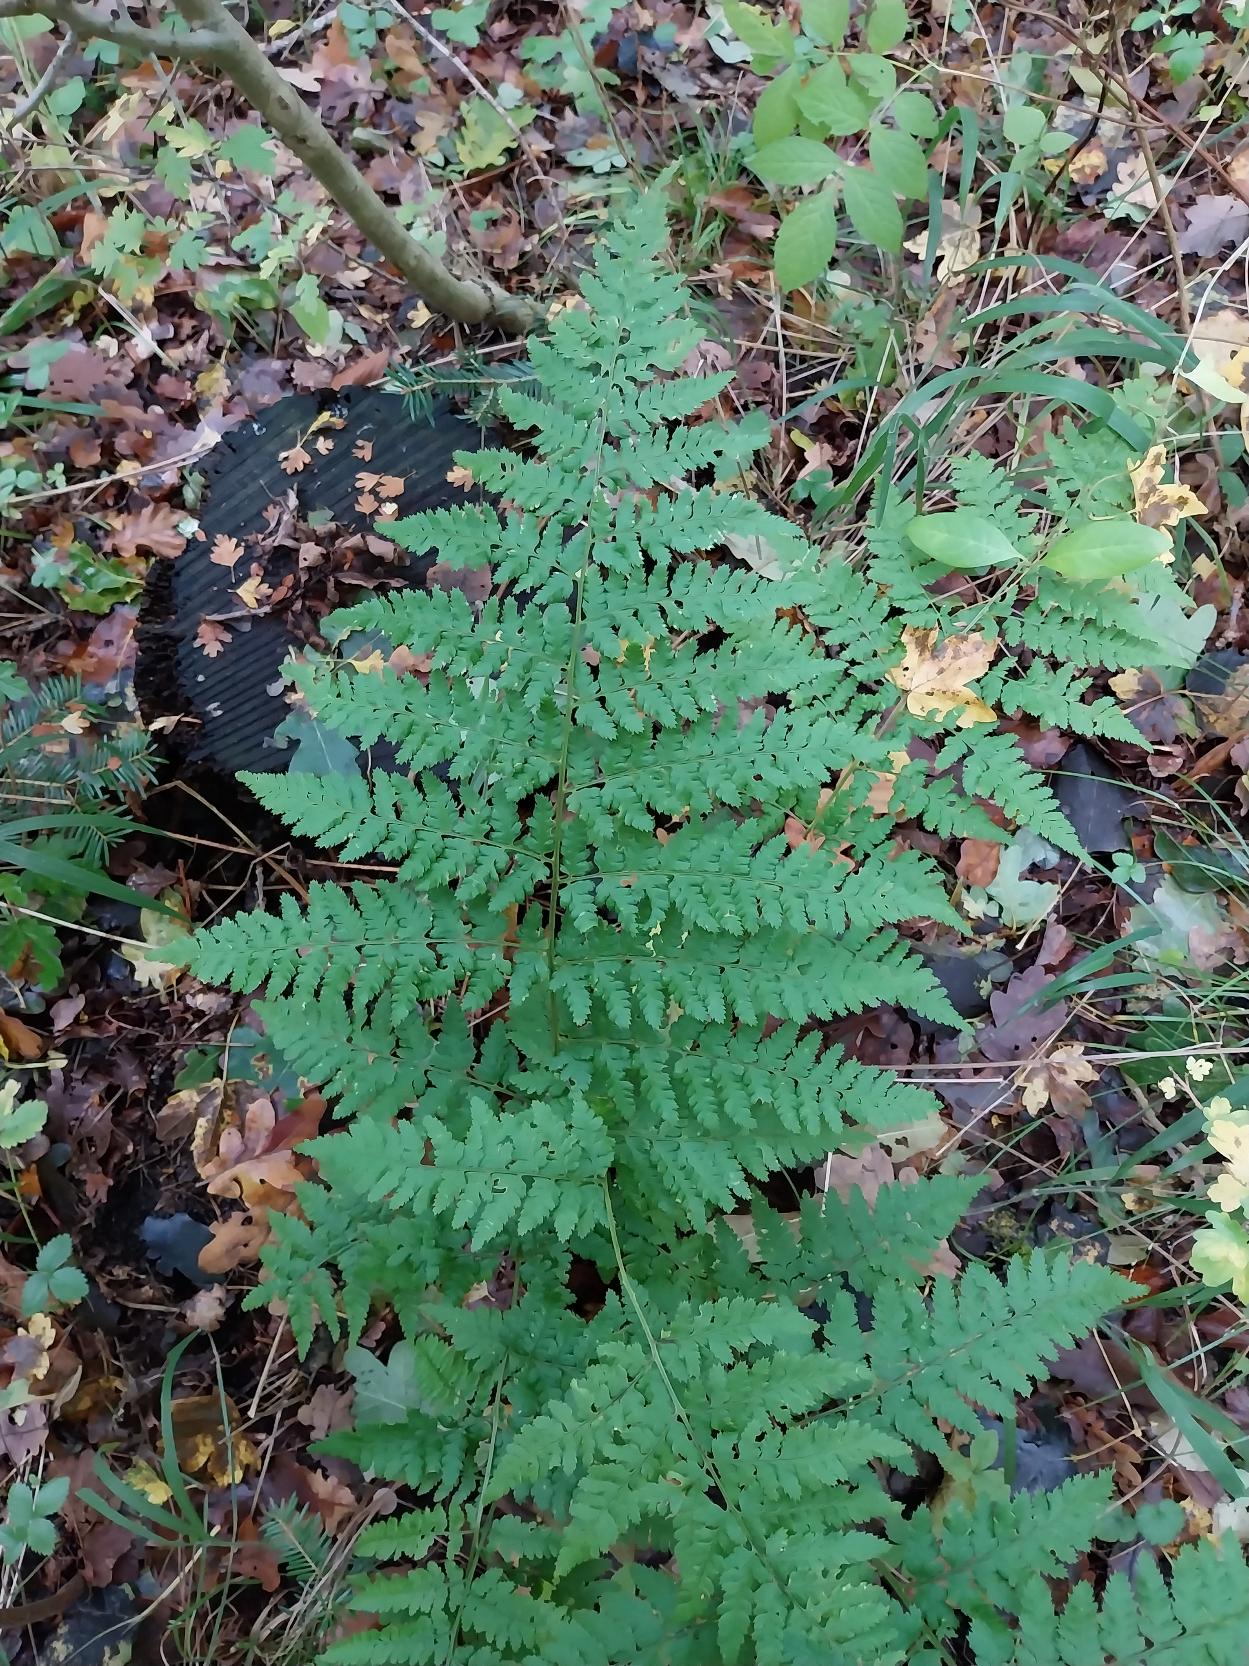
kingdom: Plantae
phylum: Tracheophyta
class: Polypodiopsida
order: Polypodiales
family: Dryopteridaceae
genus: Dryopteris
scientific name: Dryopteris dilatata
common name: Bredbladet mangeløv
